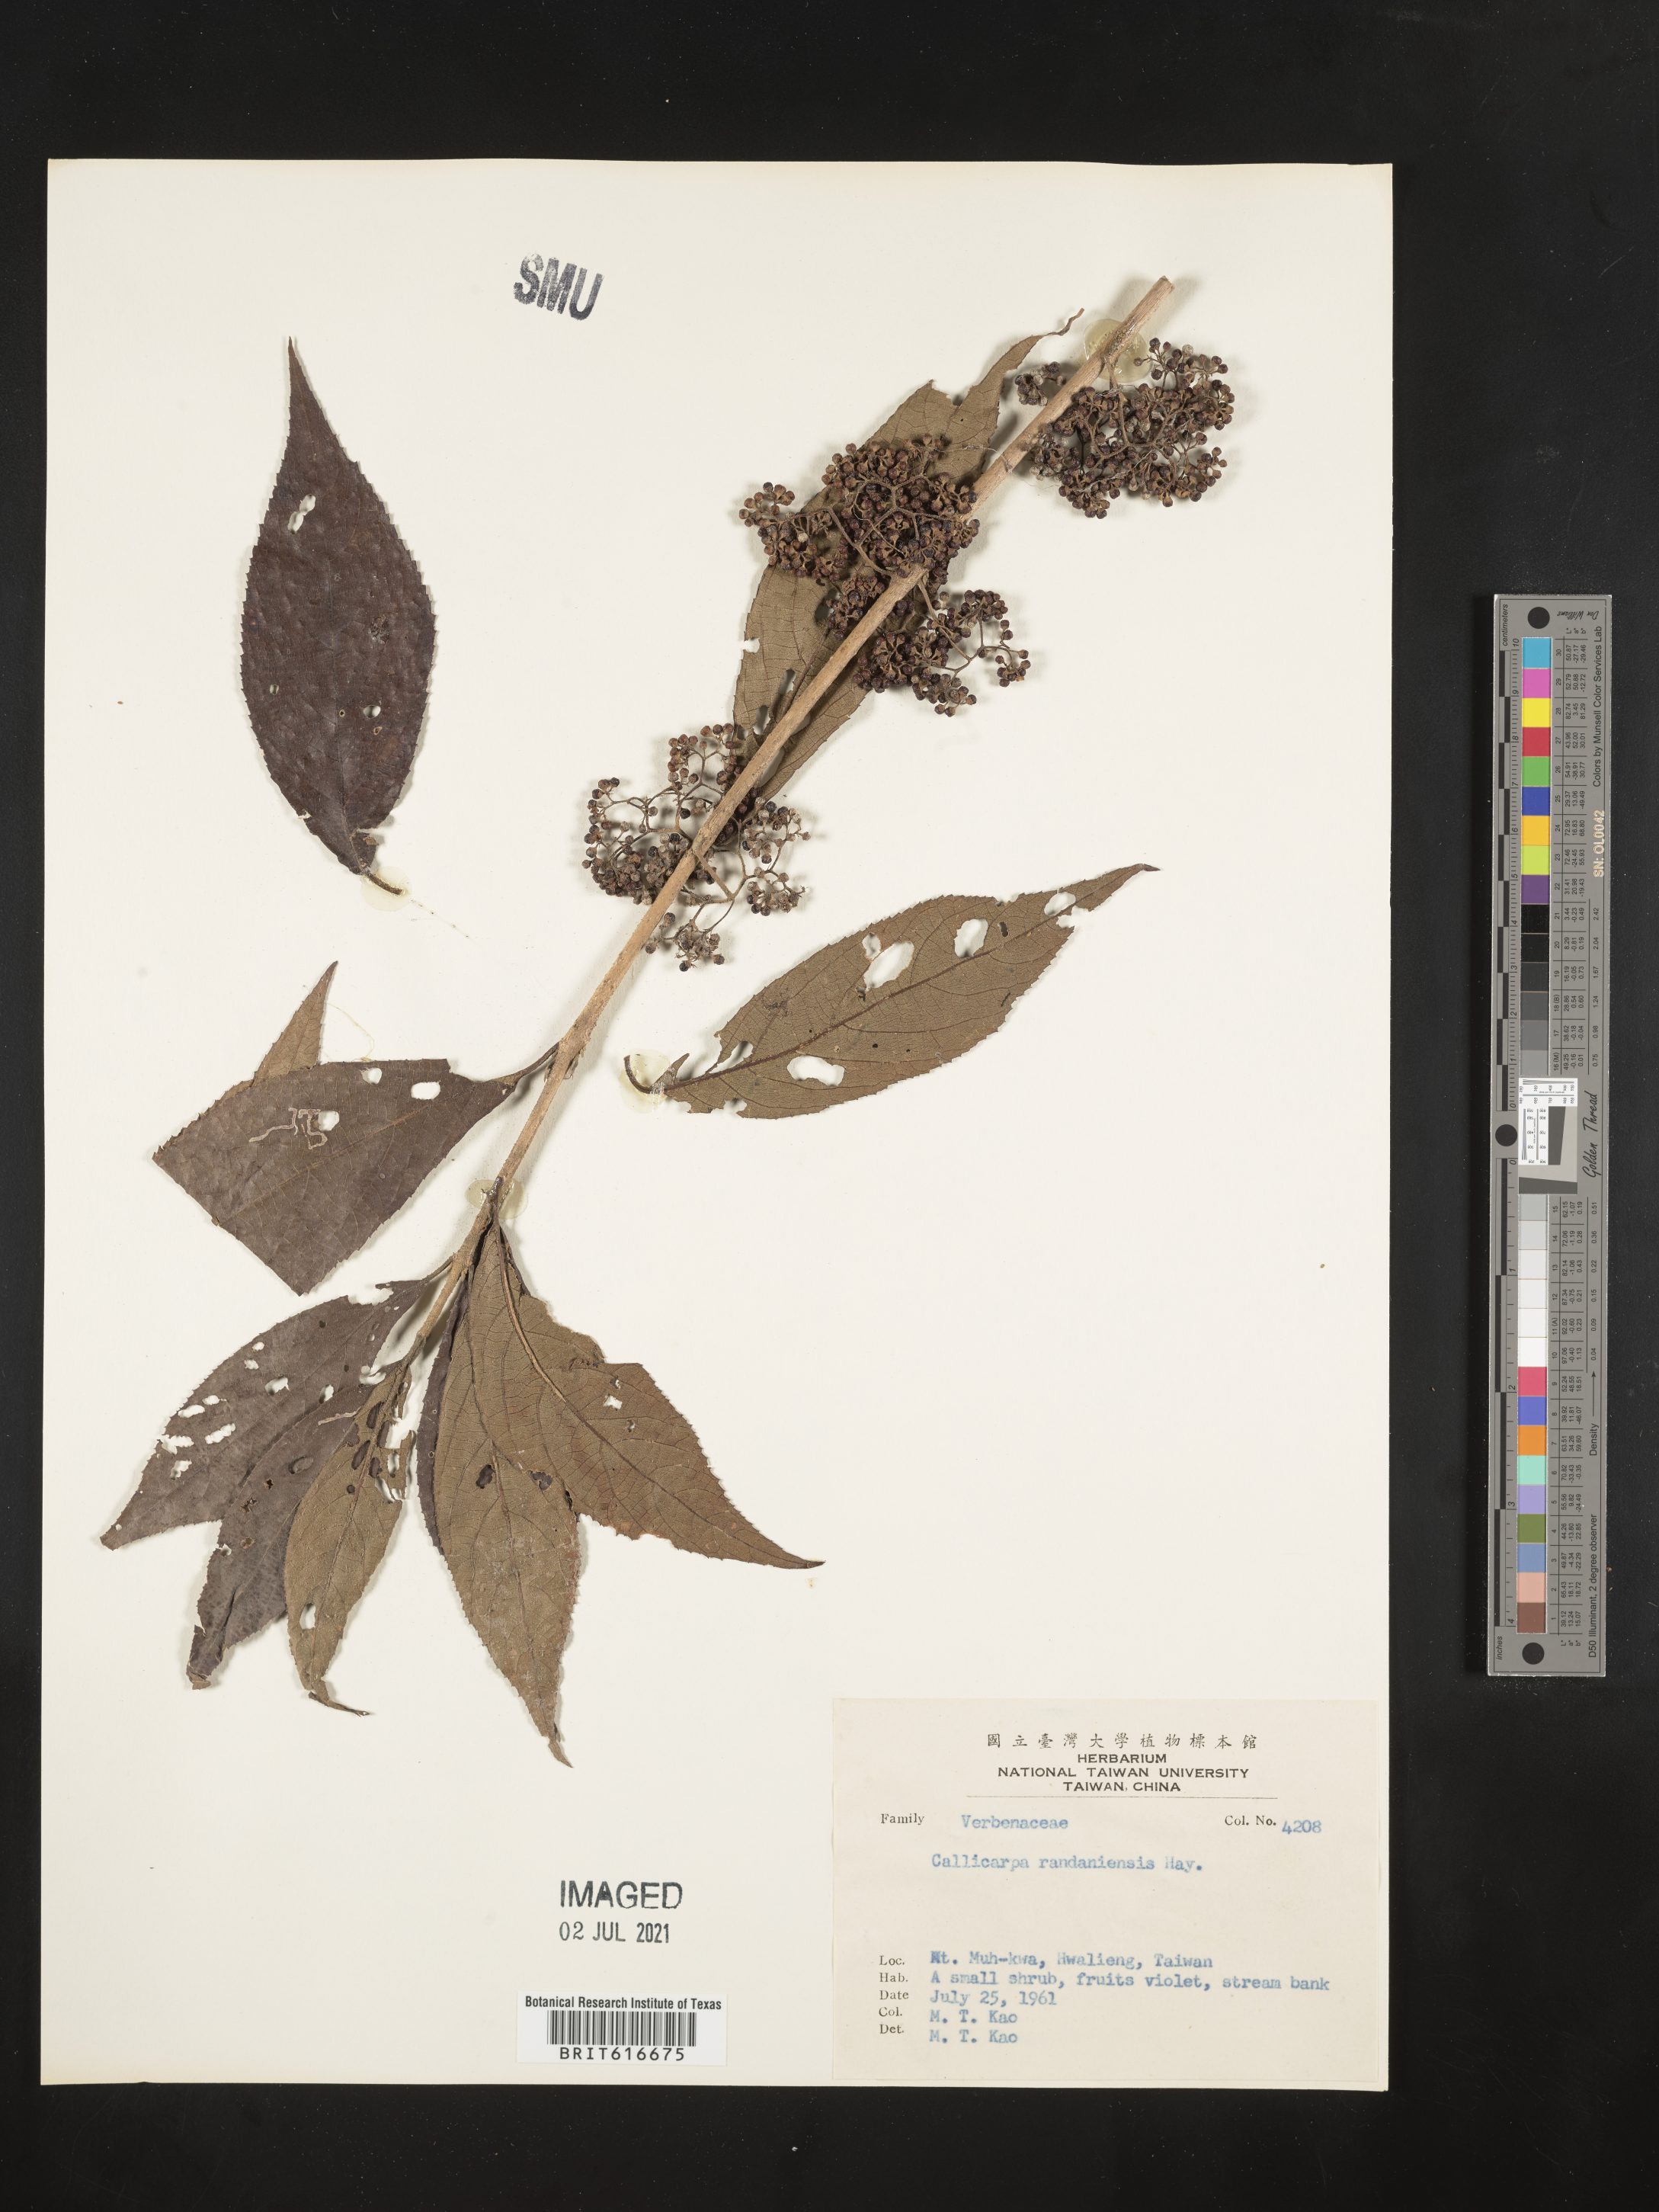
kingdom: Plantae
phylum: Tracheophyta
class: Magnoliopsida
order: Lamiales
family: Lamiaceae
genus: Callicarpa
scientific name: Callicarpa randaiensis
